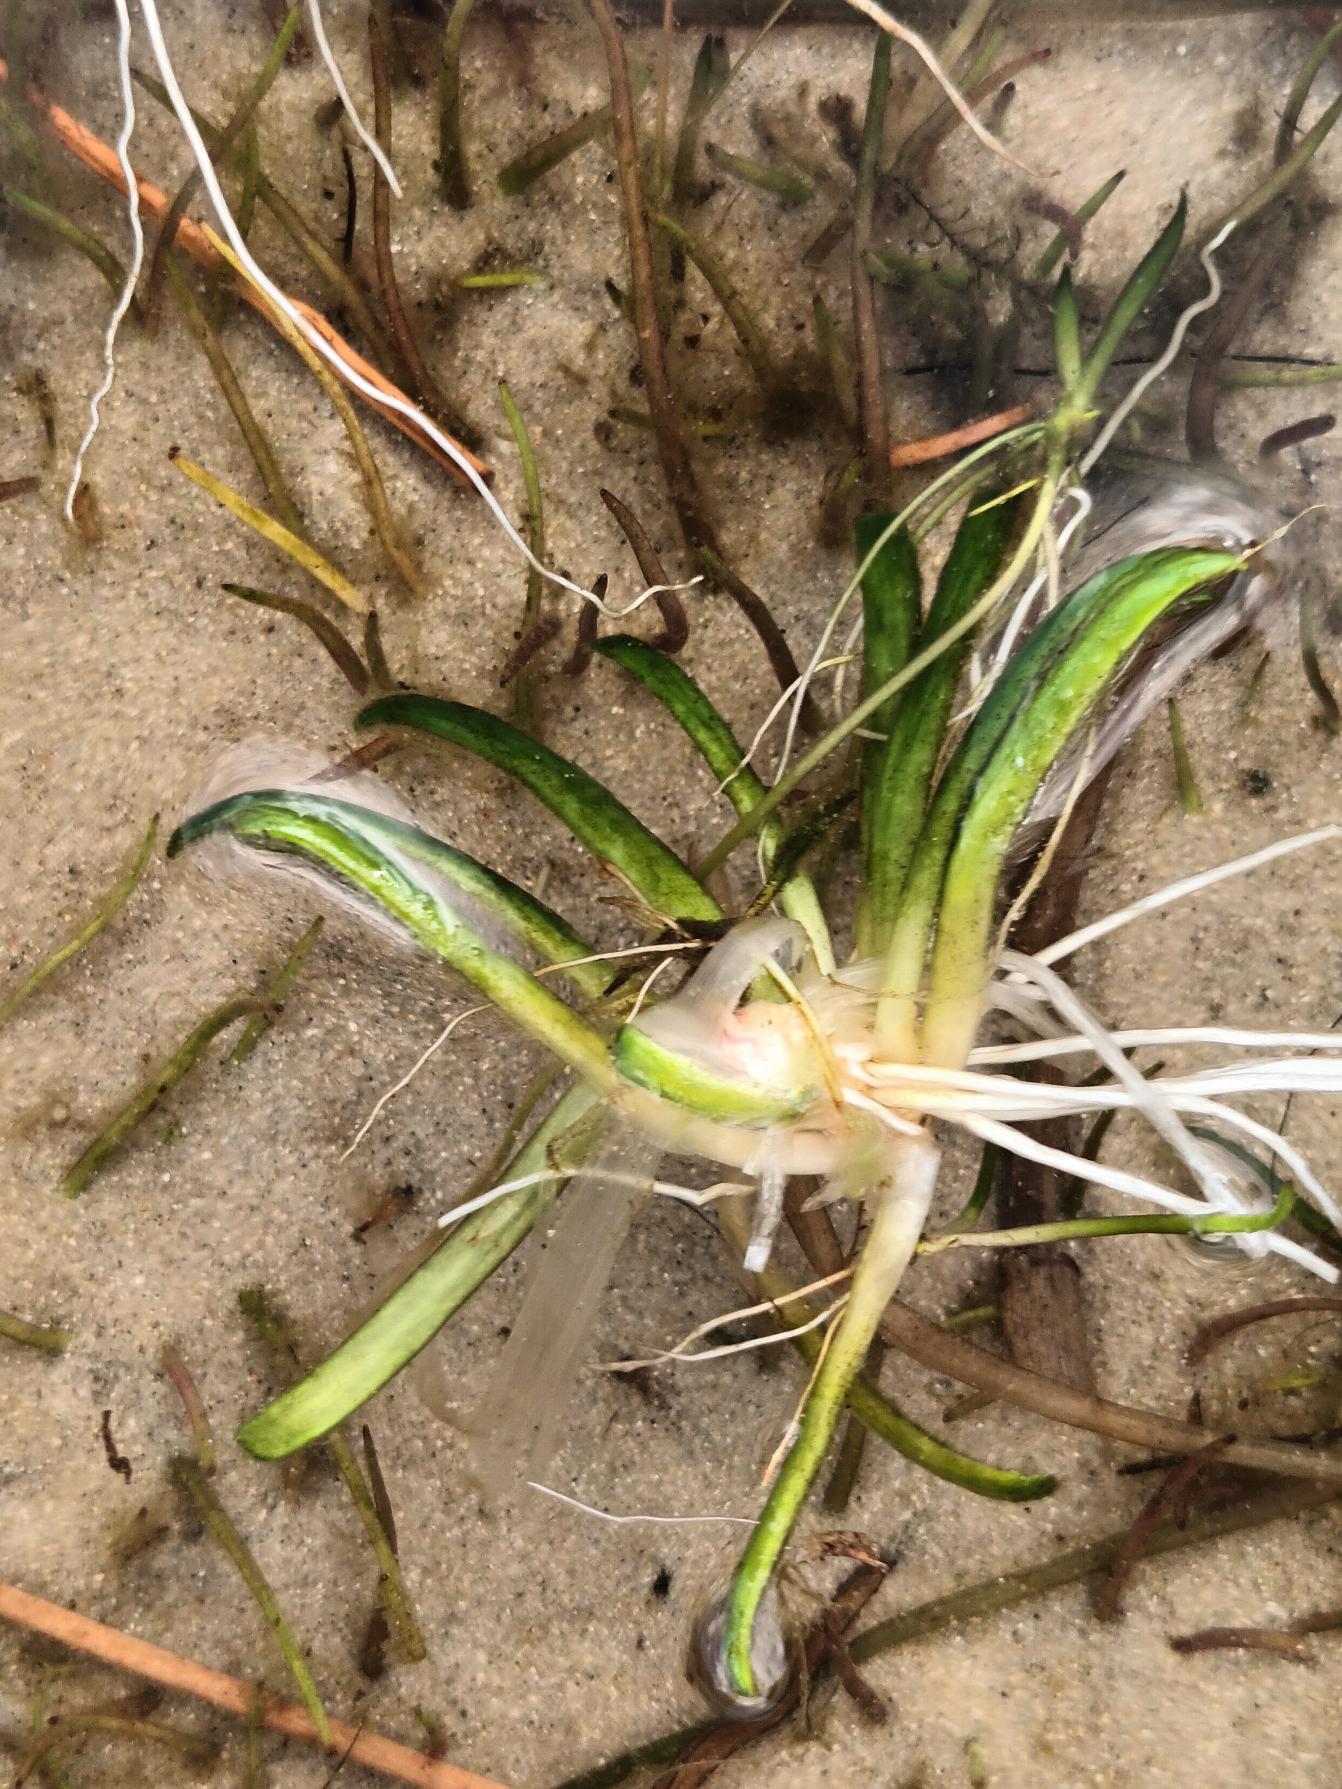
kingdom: Plantae
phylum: Tracheophyta
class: Magnoliopsida
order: Asterales
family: Campanulaceae
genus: Lobelia
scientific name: Lobelia dortmanna
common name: Tvepibet lobelie
